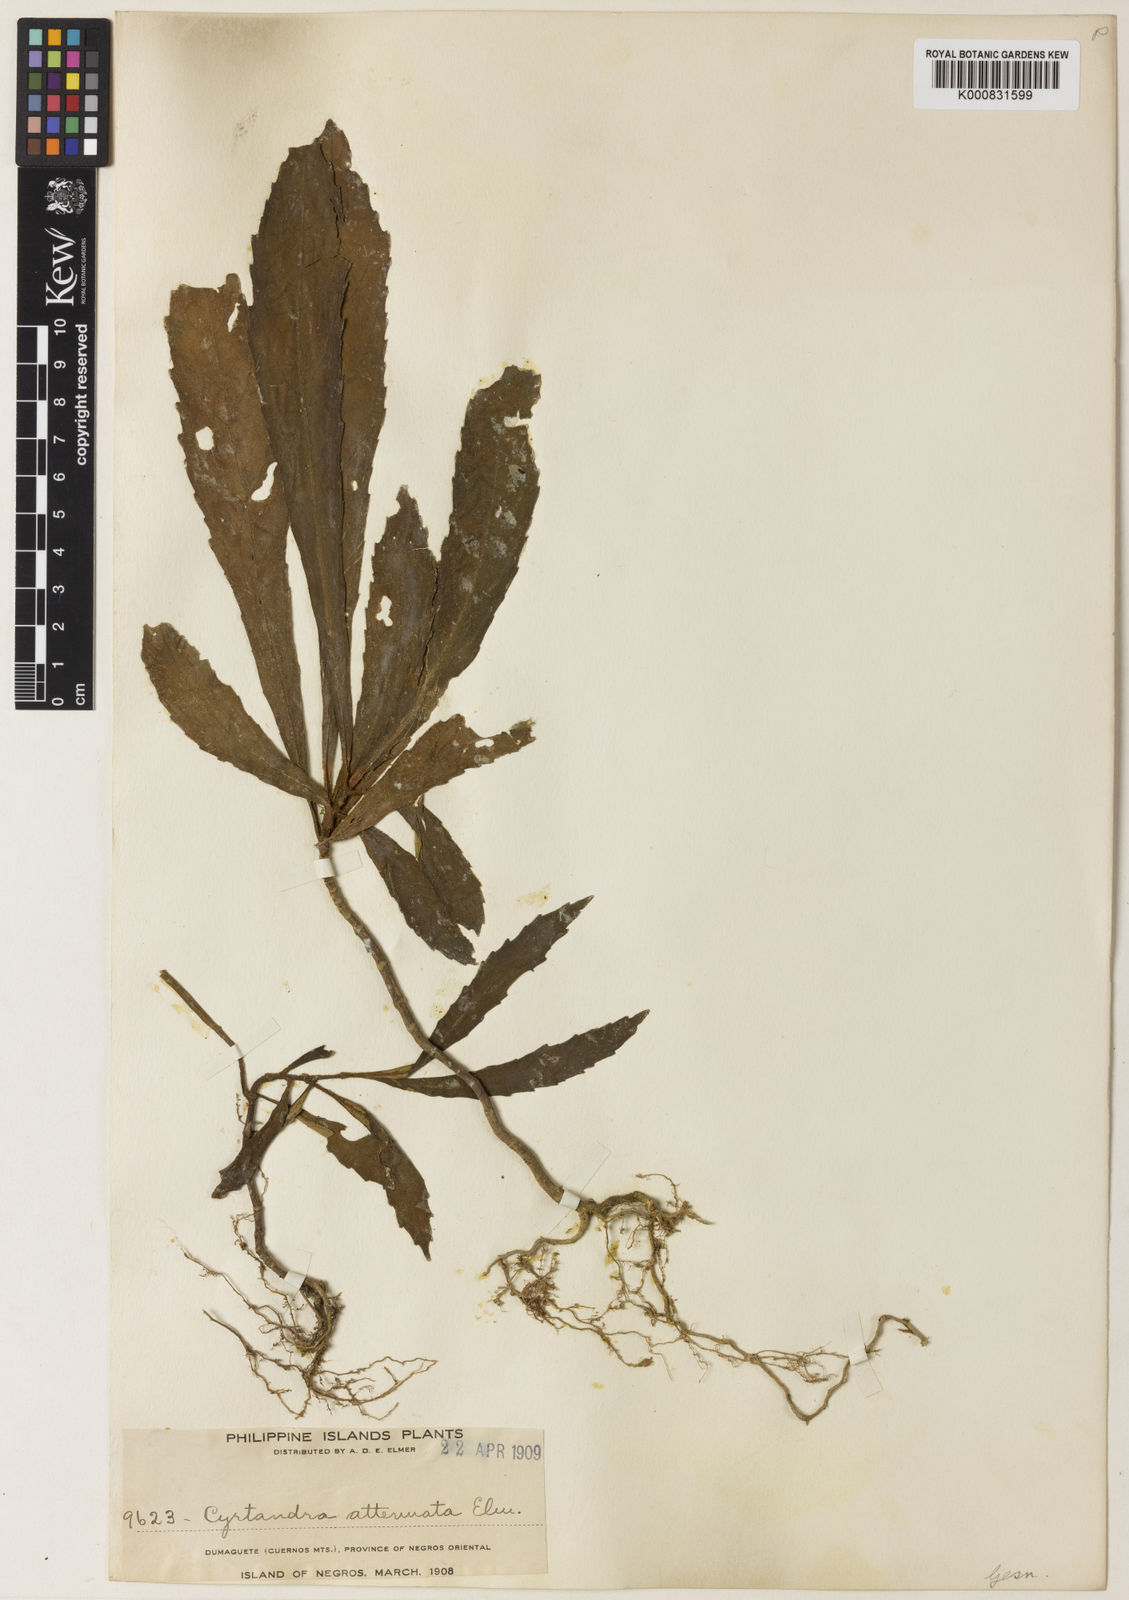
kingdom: Plantae
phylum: Tracheophyta
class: Magnoliopsida
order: Lamiales
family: Gesneriaceae
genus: Cyrtandra
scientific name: Cyrtandra attenuata
